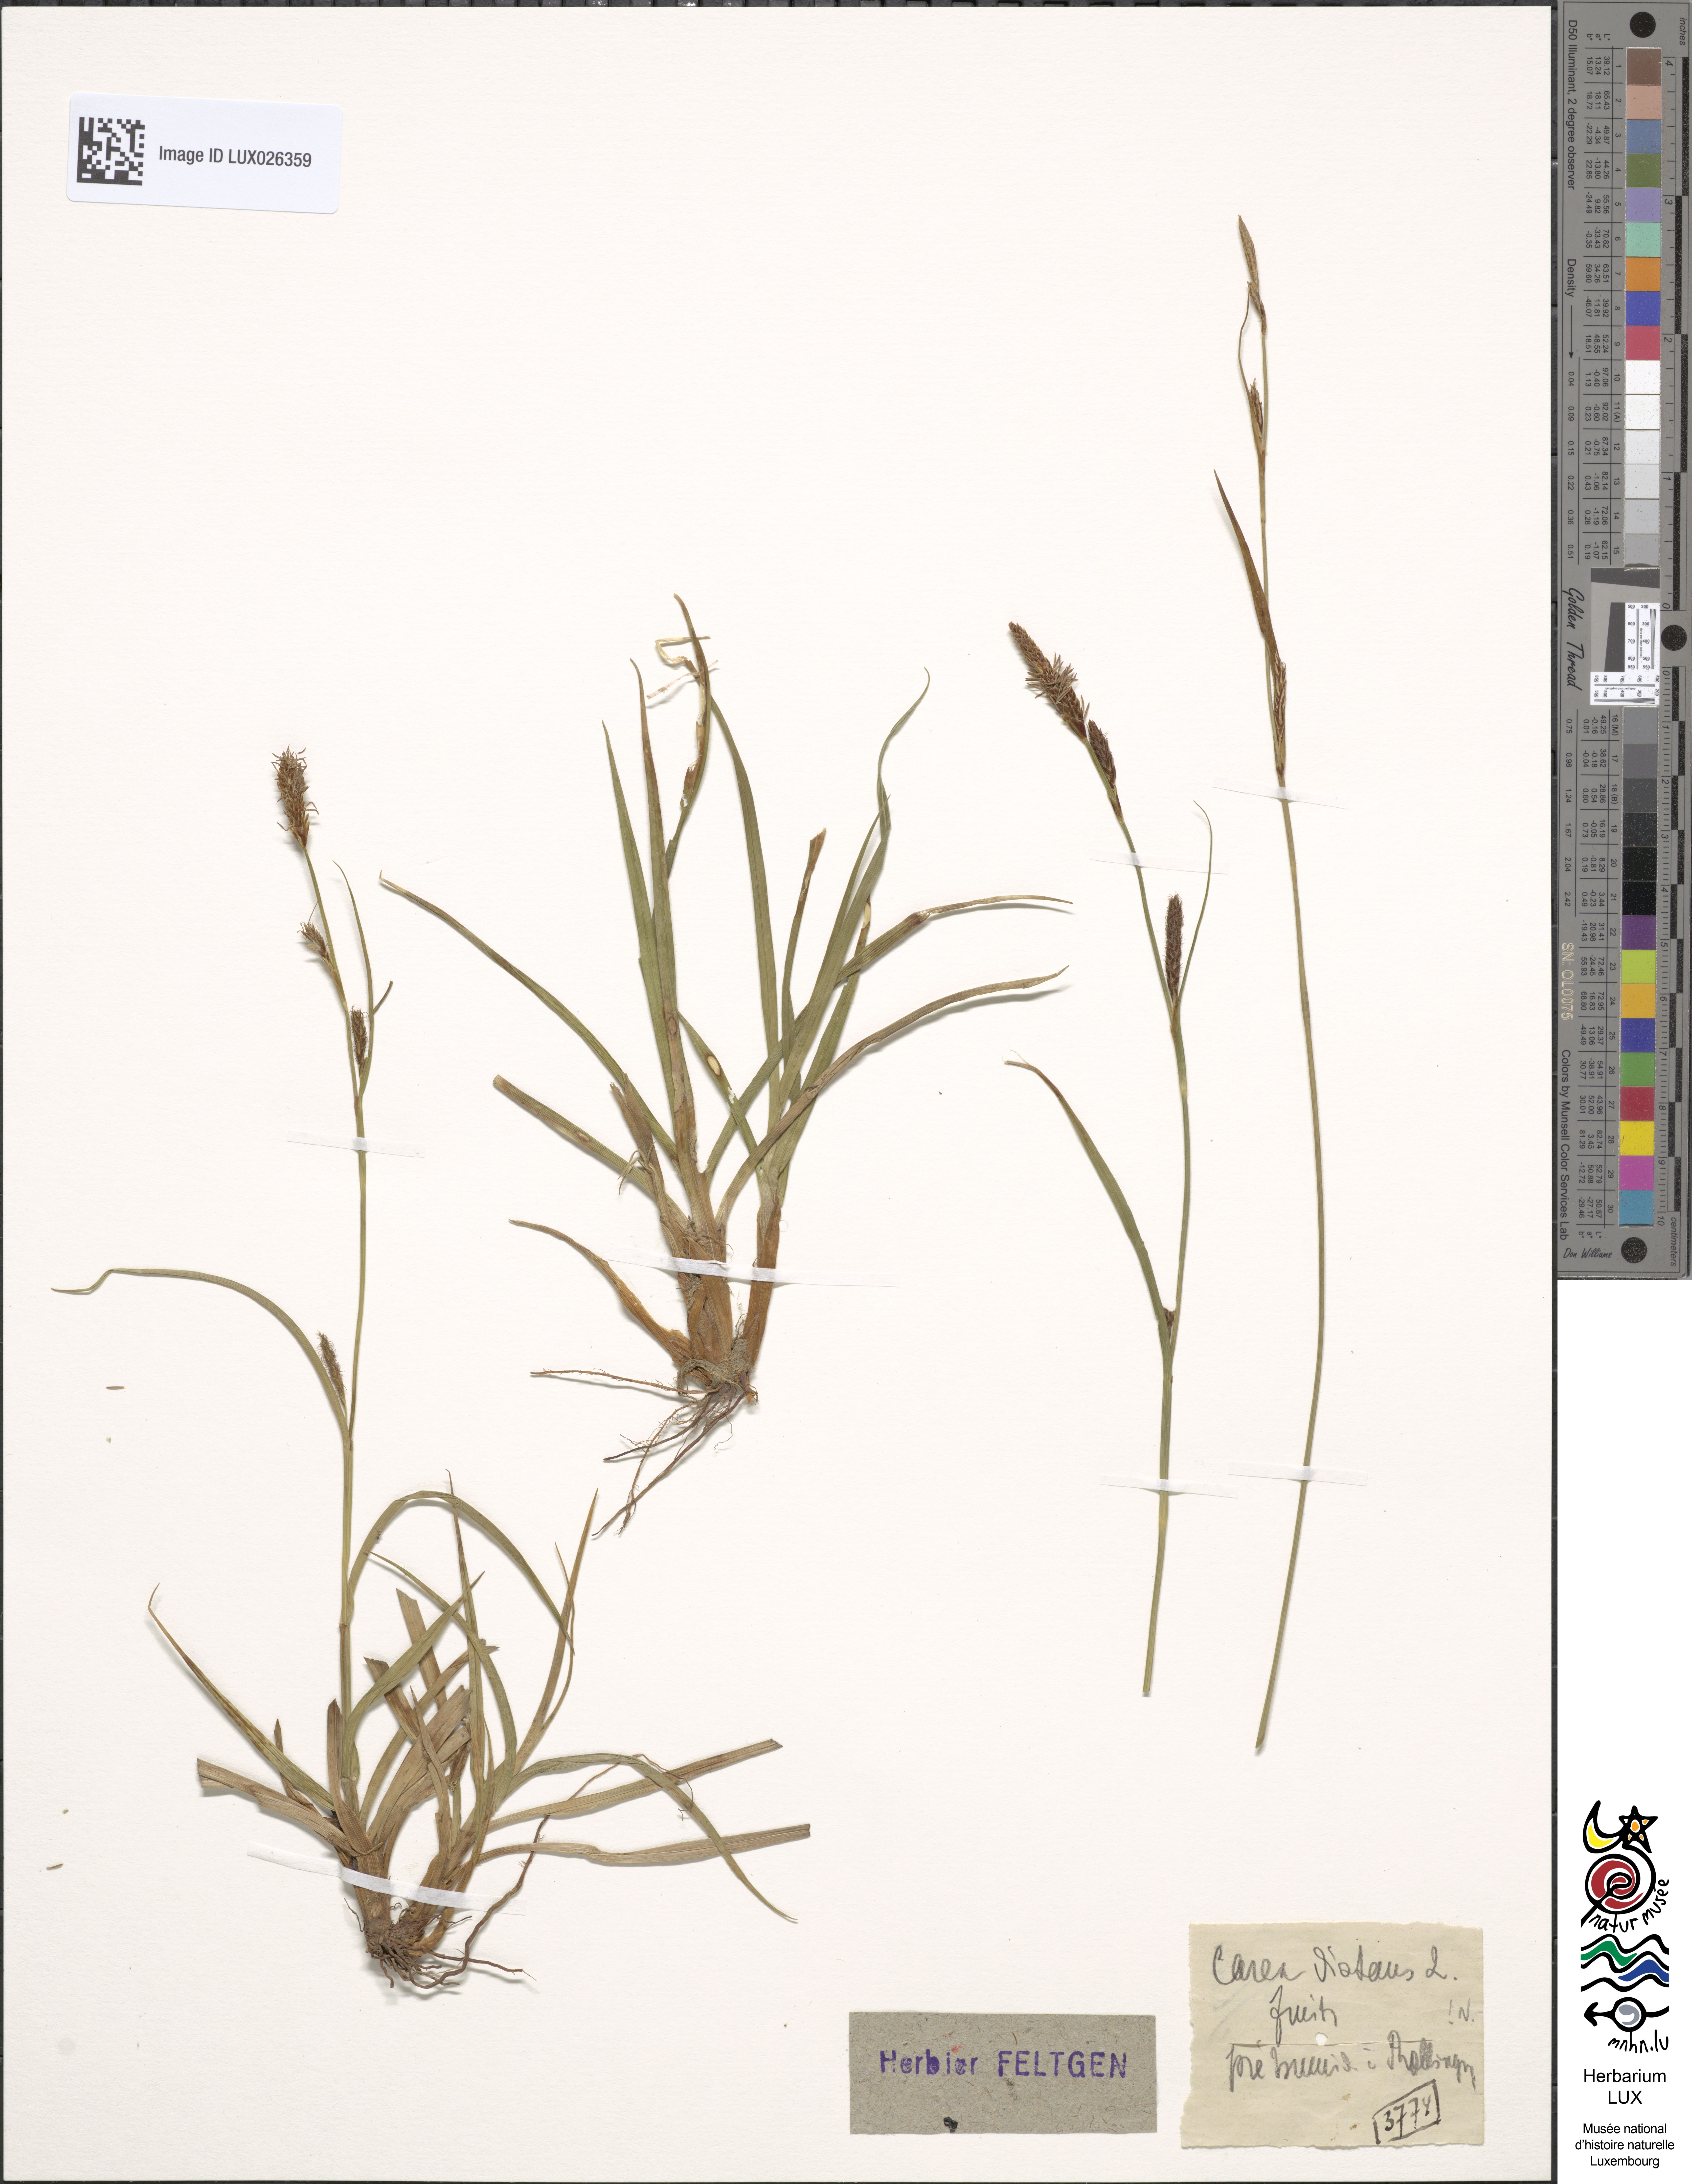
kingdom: Plantae
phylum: Tracheophyta
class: Liliopsida
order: Poales
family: Cyperaceae
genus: Carex
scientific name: Carex distans
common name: Distant sedge
